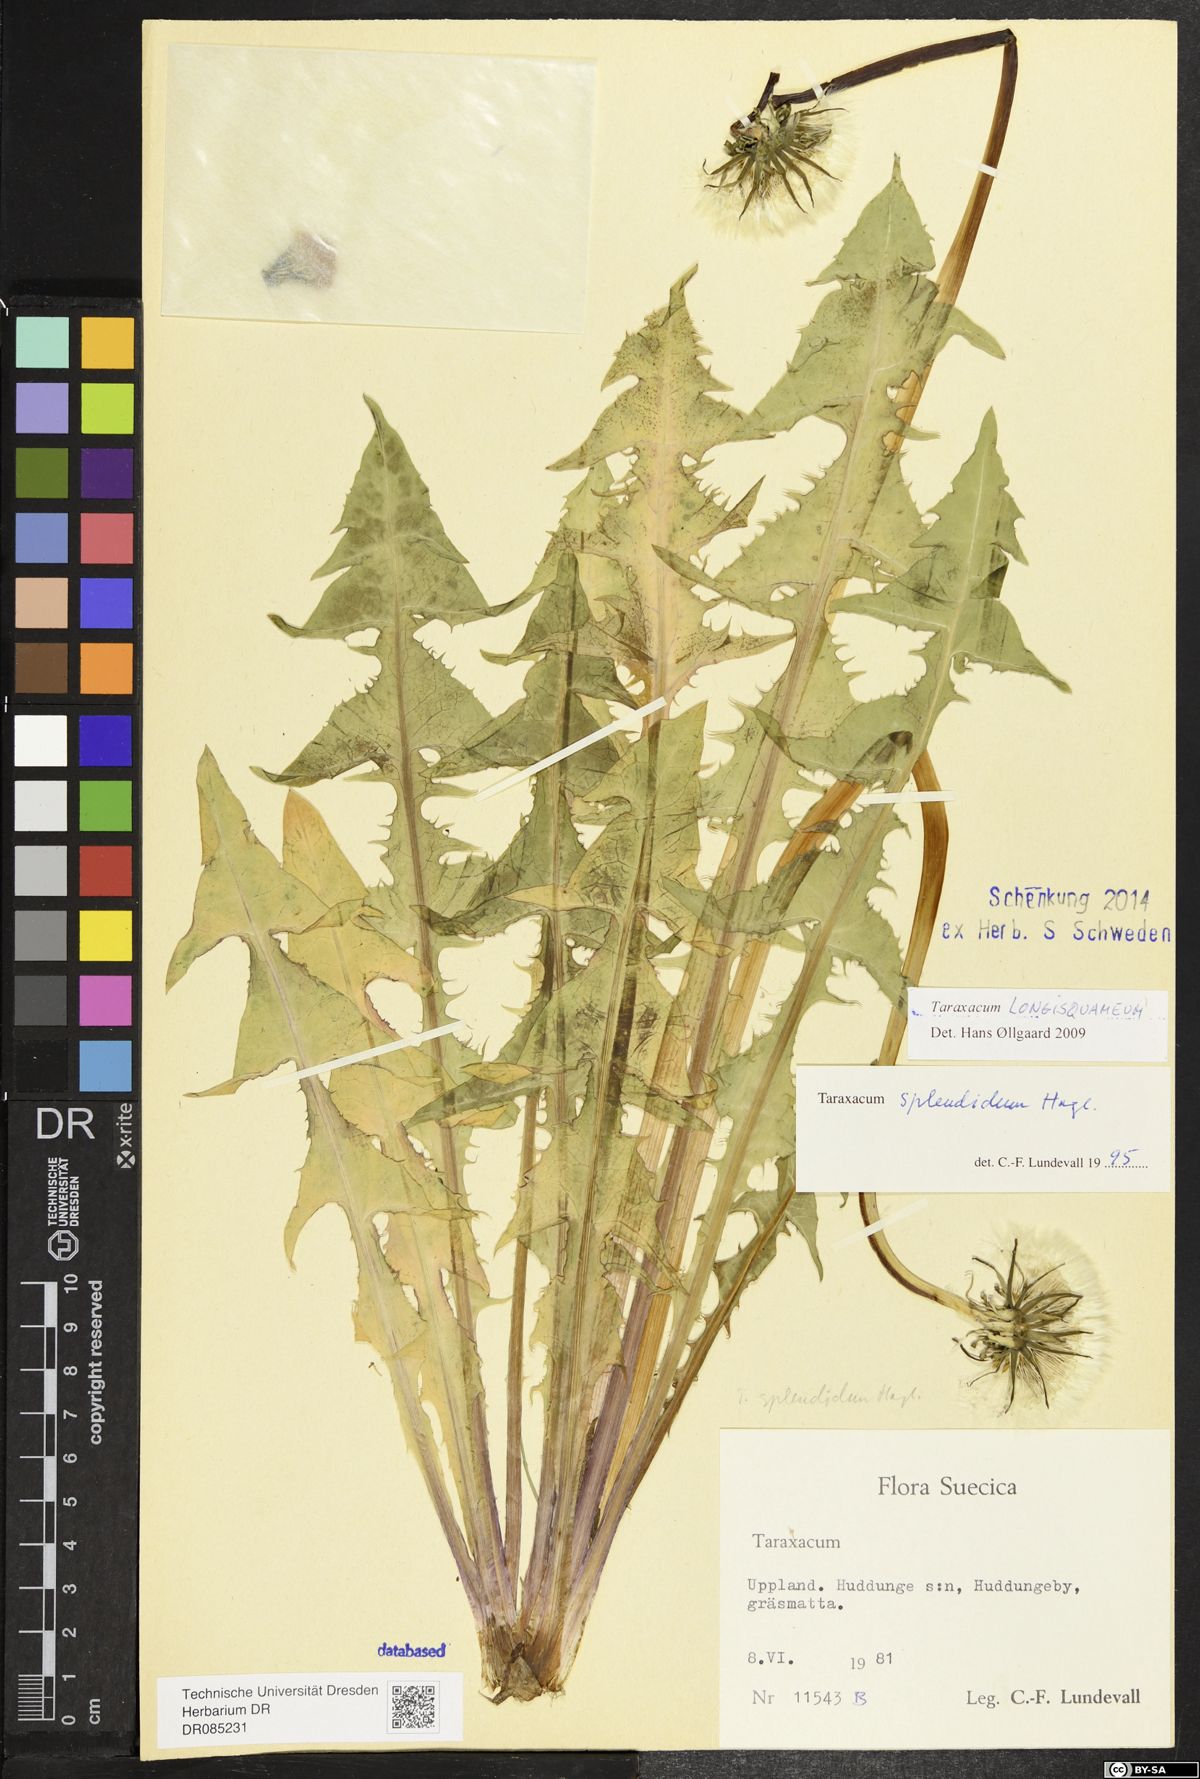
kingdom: Plantae
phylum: Tracheophyta
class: Magnoliopsida
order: Asterales
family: Asteraceae
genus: Taraxacum
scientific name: Taraxacum longisquameum
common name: Elongate-bracted dandelion
